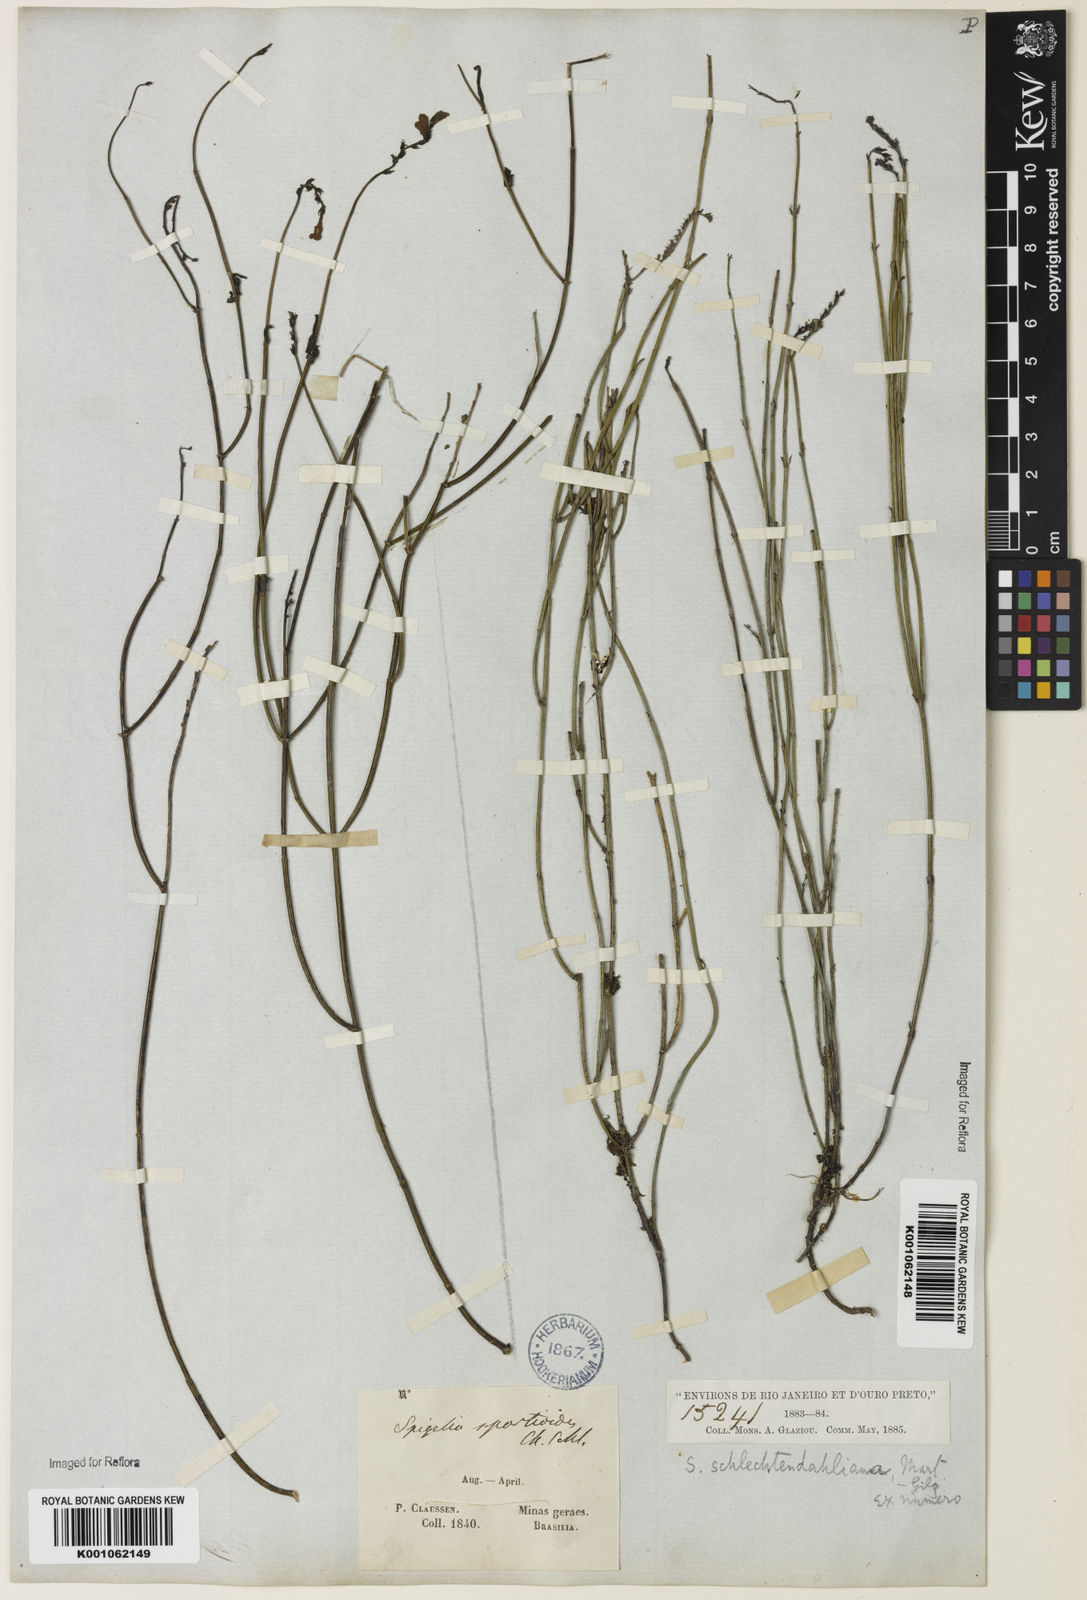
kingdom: Plantae
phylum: Tracheophyta
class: Magnoliopsida
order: Gentianales
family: Loganiaceae
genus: Spigelia
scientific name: Spigelia spartioides
